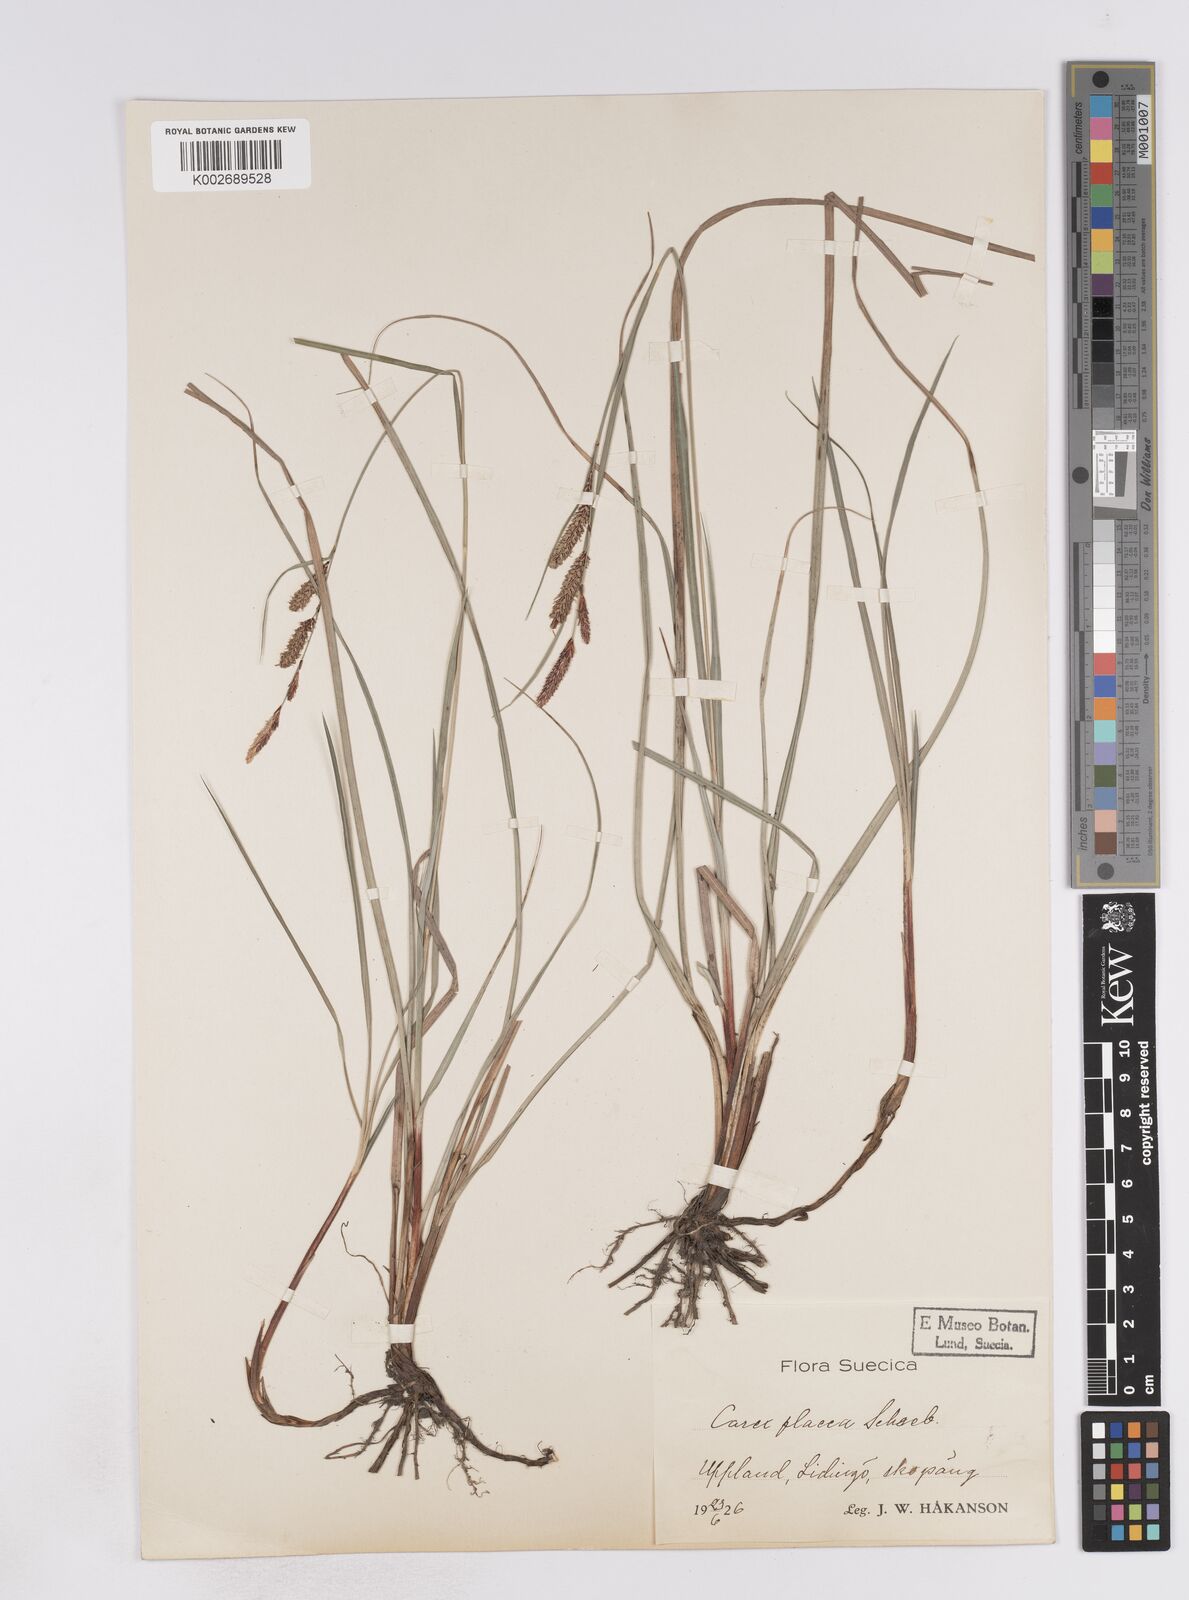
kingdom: Plantae
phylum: Tracheophyta
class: Liliopsida
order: Poales
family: Cyperaceae
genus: Carex
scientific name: Carex flacca
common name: Glaucous sedge
